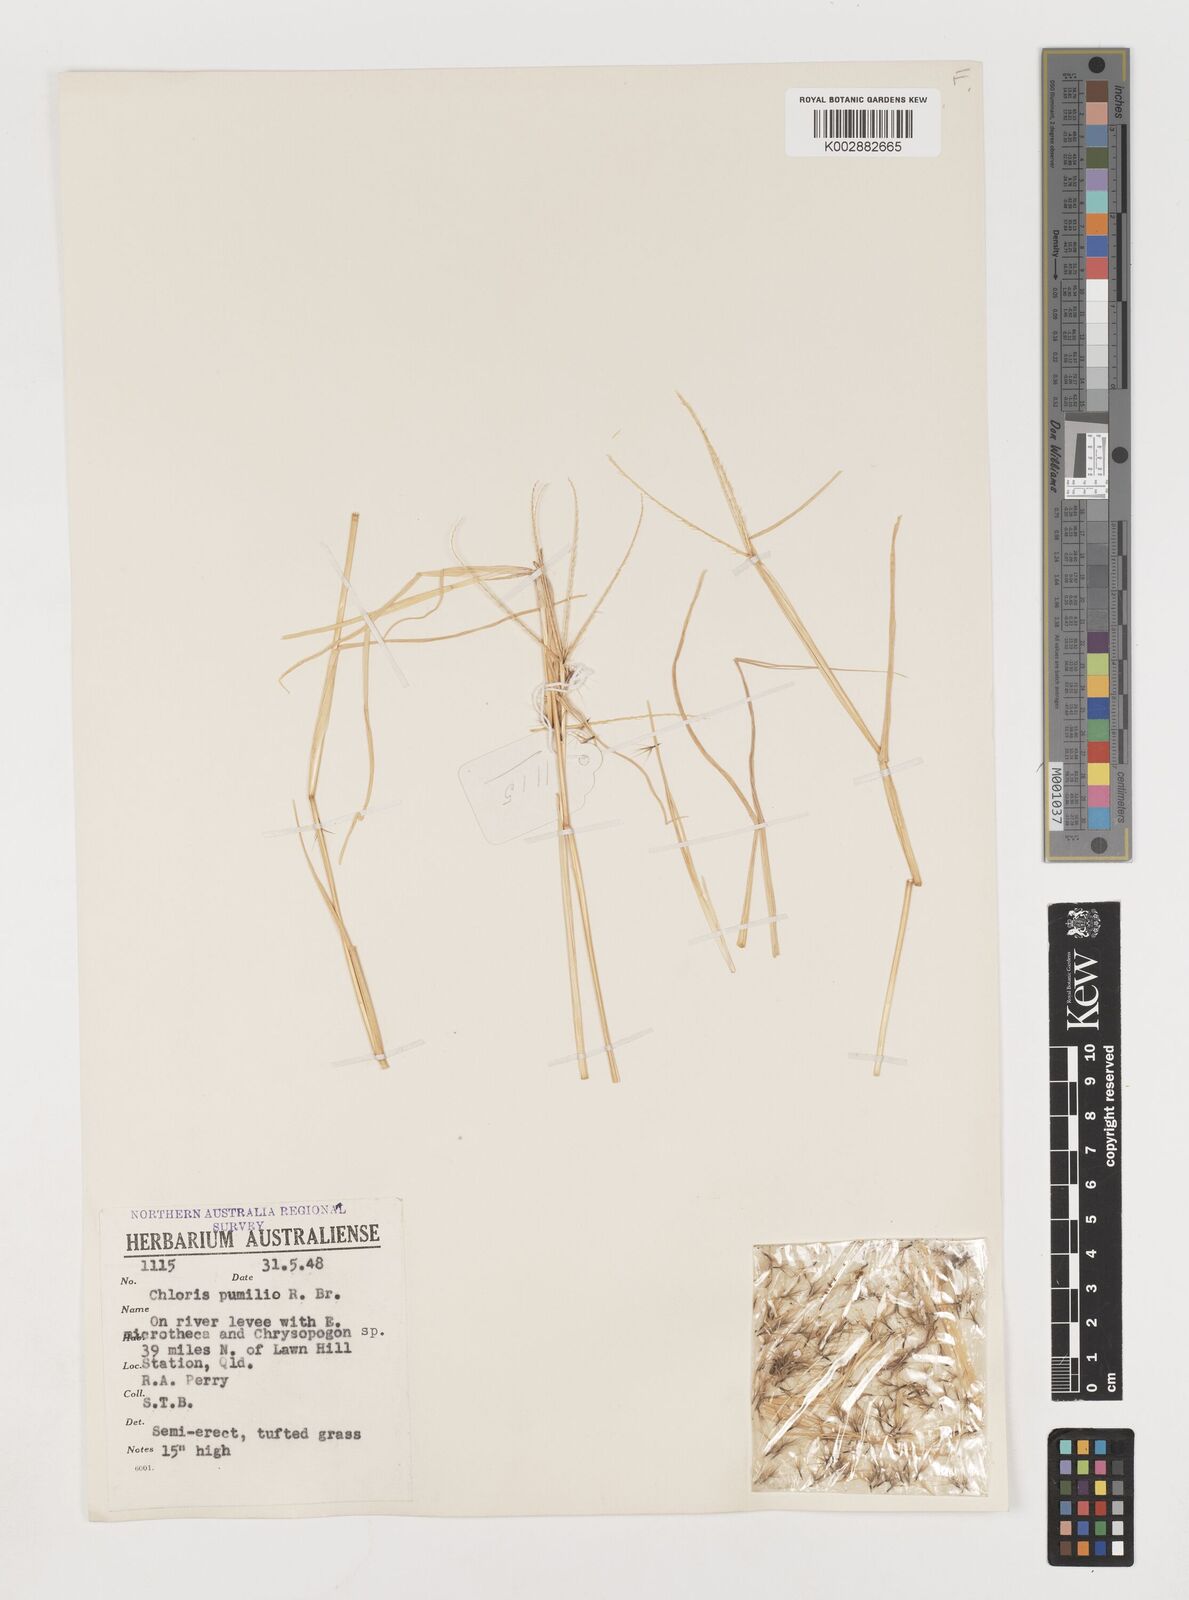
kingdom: Plantae
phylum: Tracheophyta
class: Liliopsida
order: Poales
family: Poaceae
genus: Chloris
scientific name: Chloris lobata
